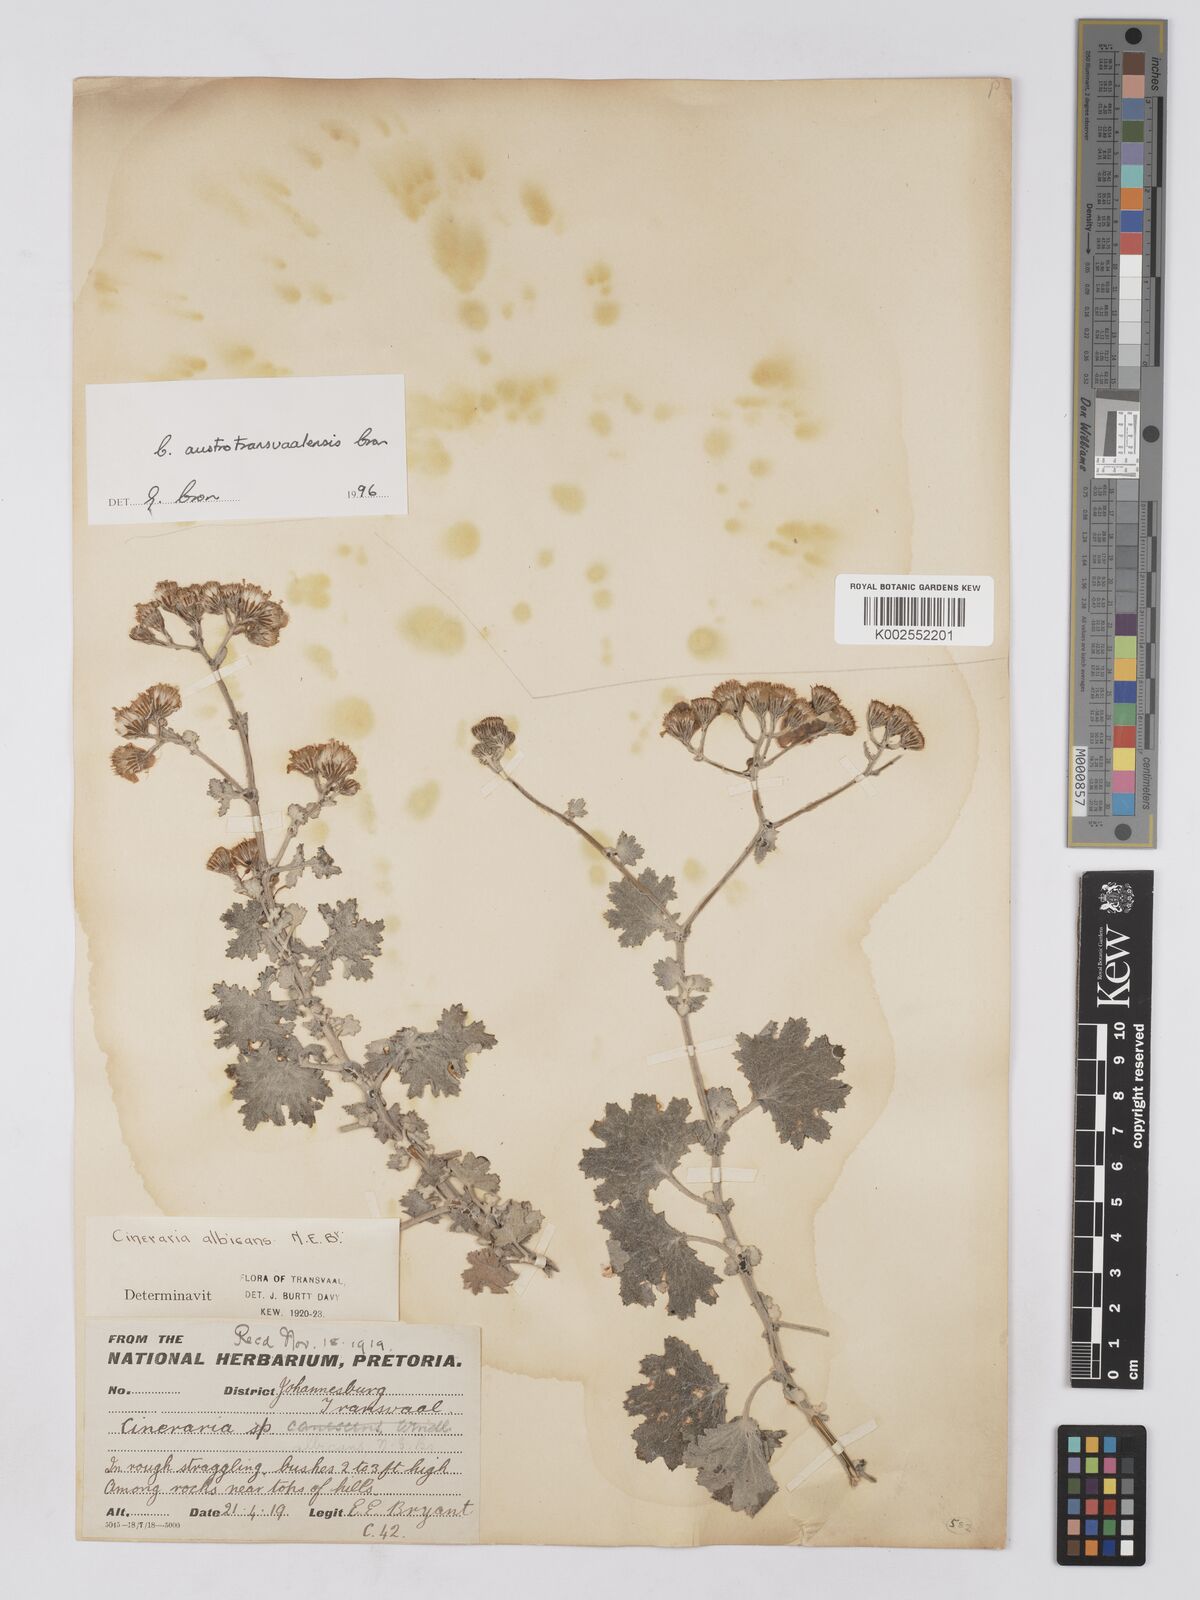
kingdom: Plantae
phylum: Tracheophyta
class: Magnoliopsida
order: Asterales
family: Asteraceae
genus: Cineraria
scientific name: Cineraria austrotransvaalensis
